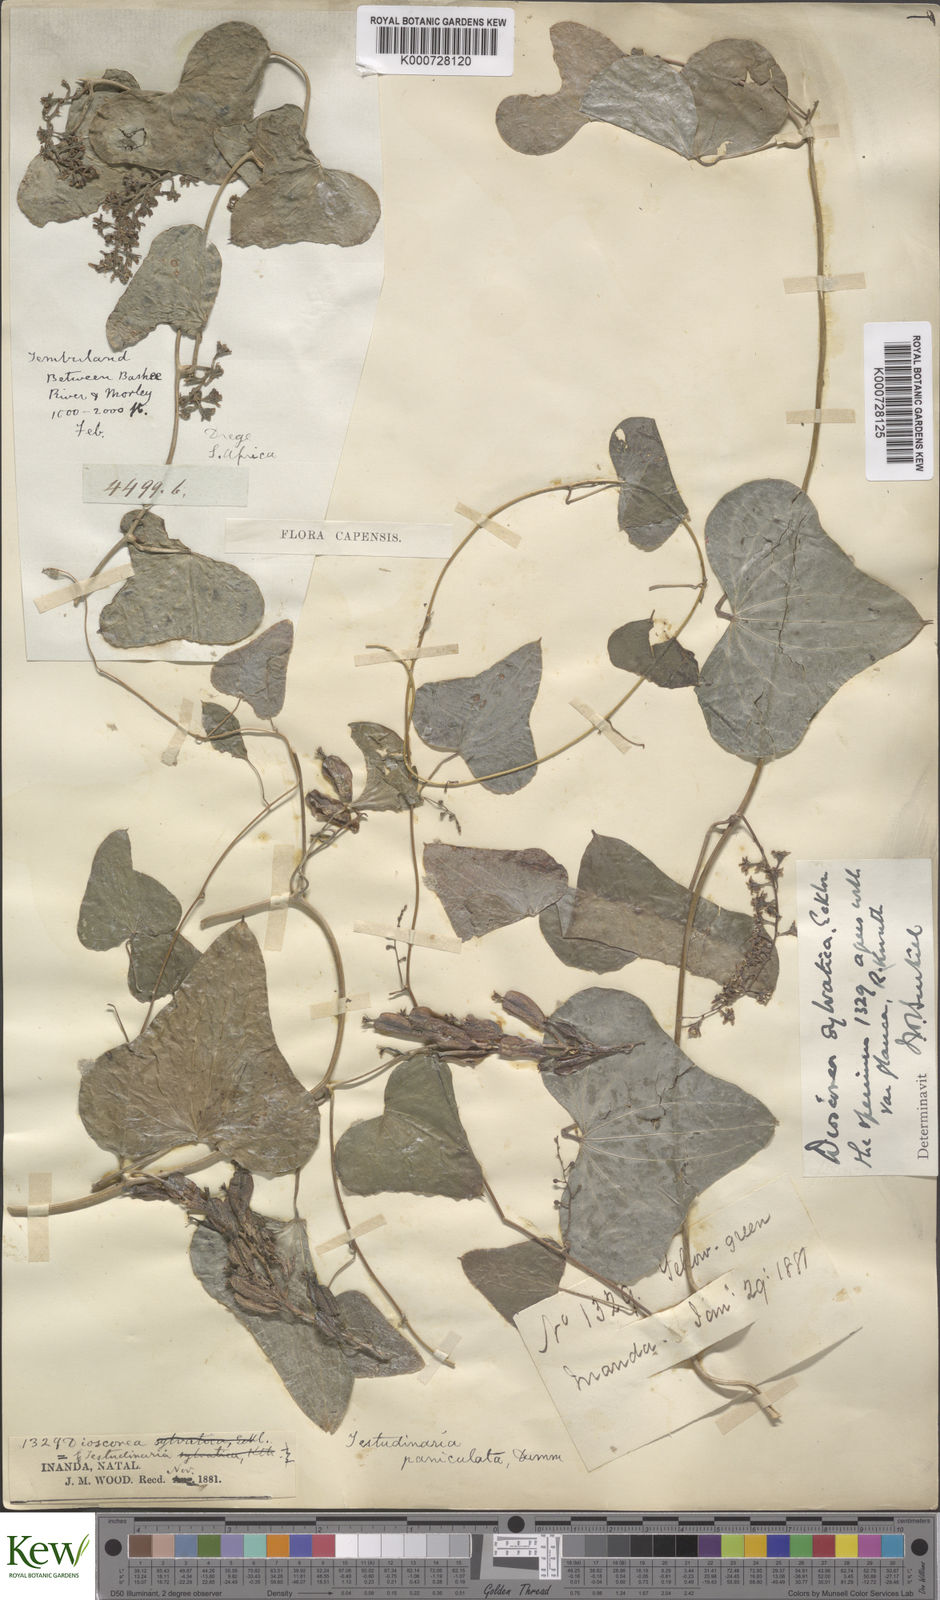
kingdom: Plantae
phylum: Tracheophyta
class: Liliopsida
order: Dioscoreales
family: Dioscoreaceae
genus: Dioscorea
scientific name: Dioscorea sylvatica
